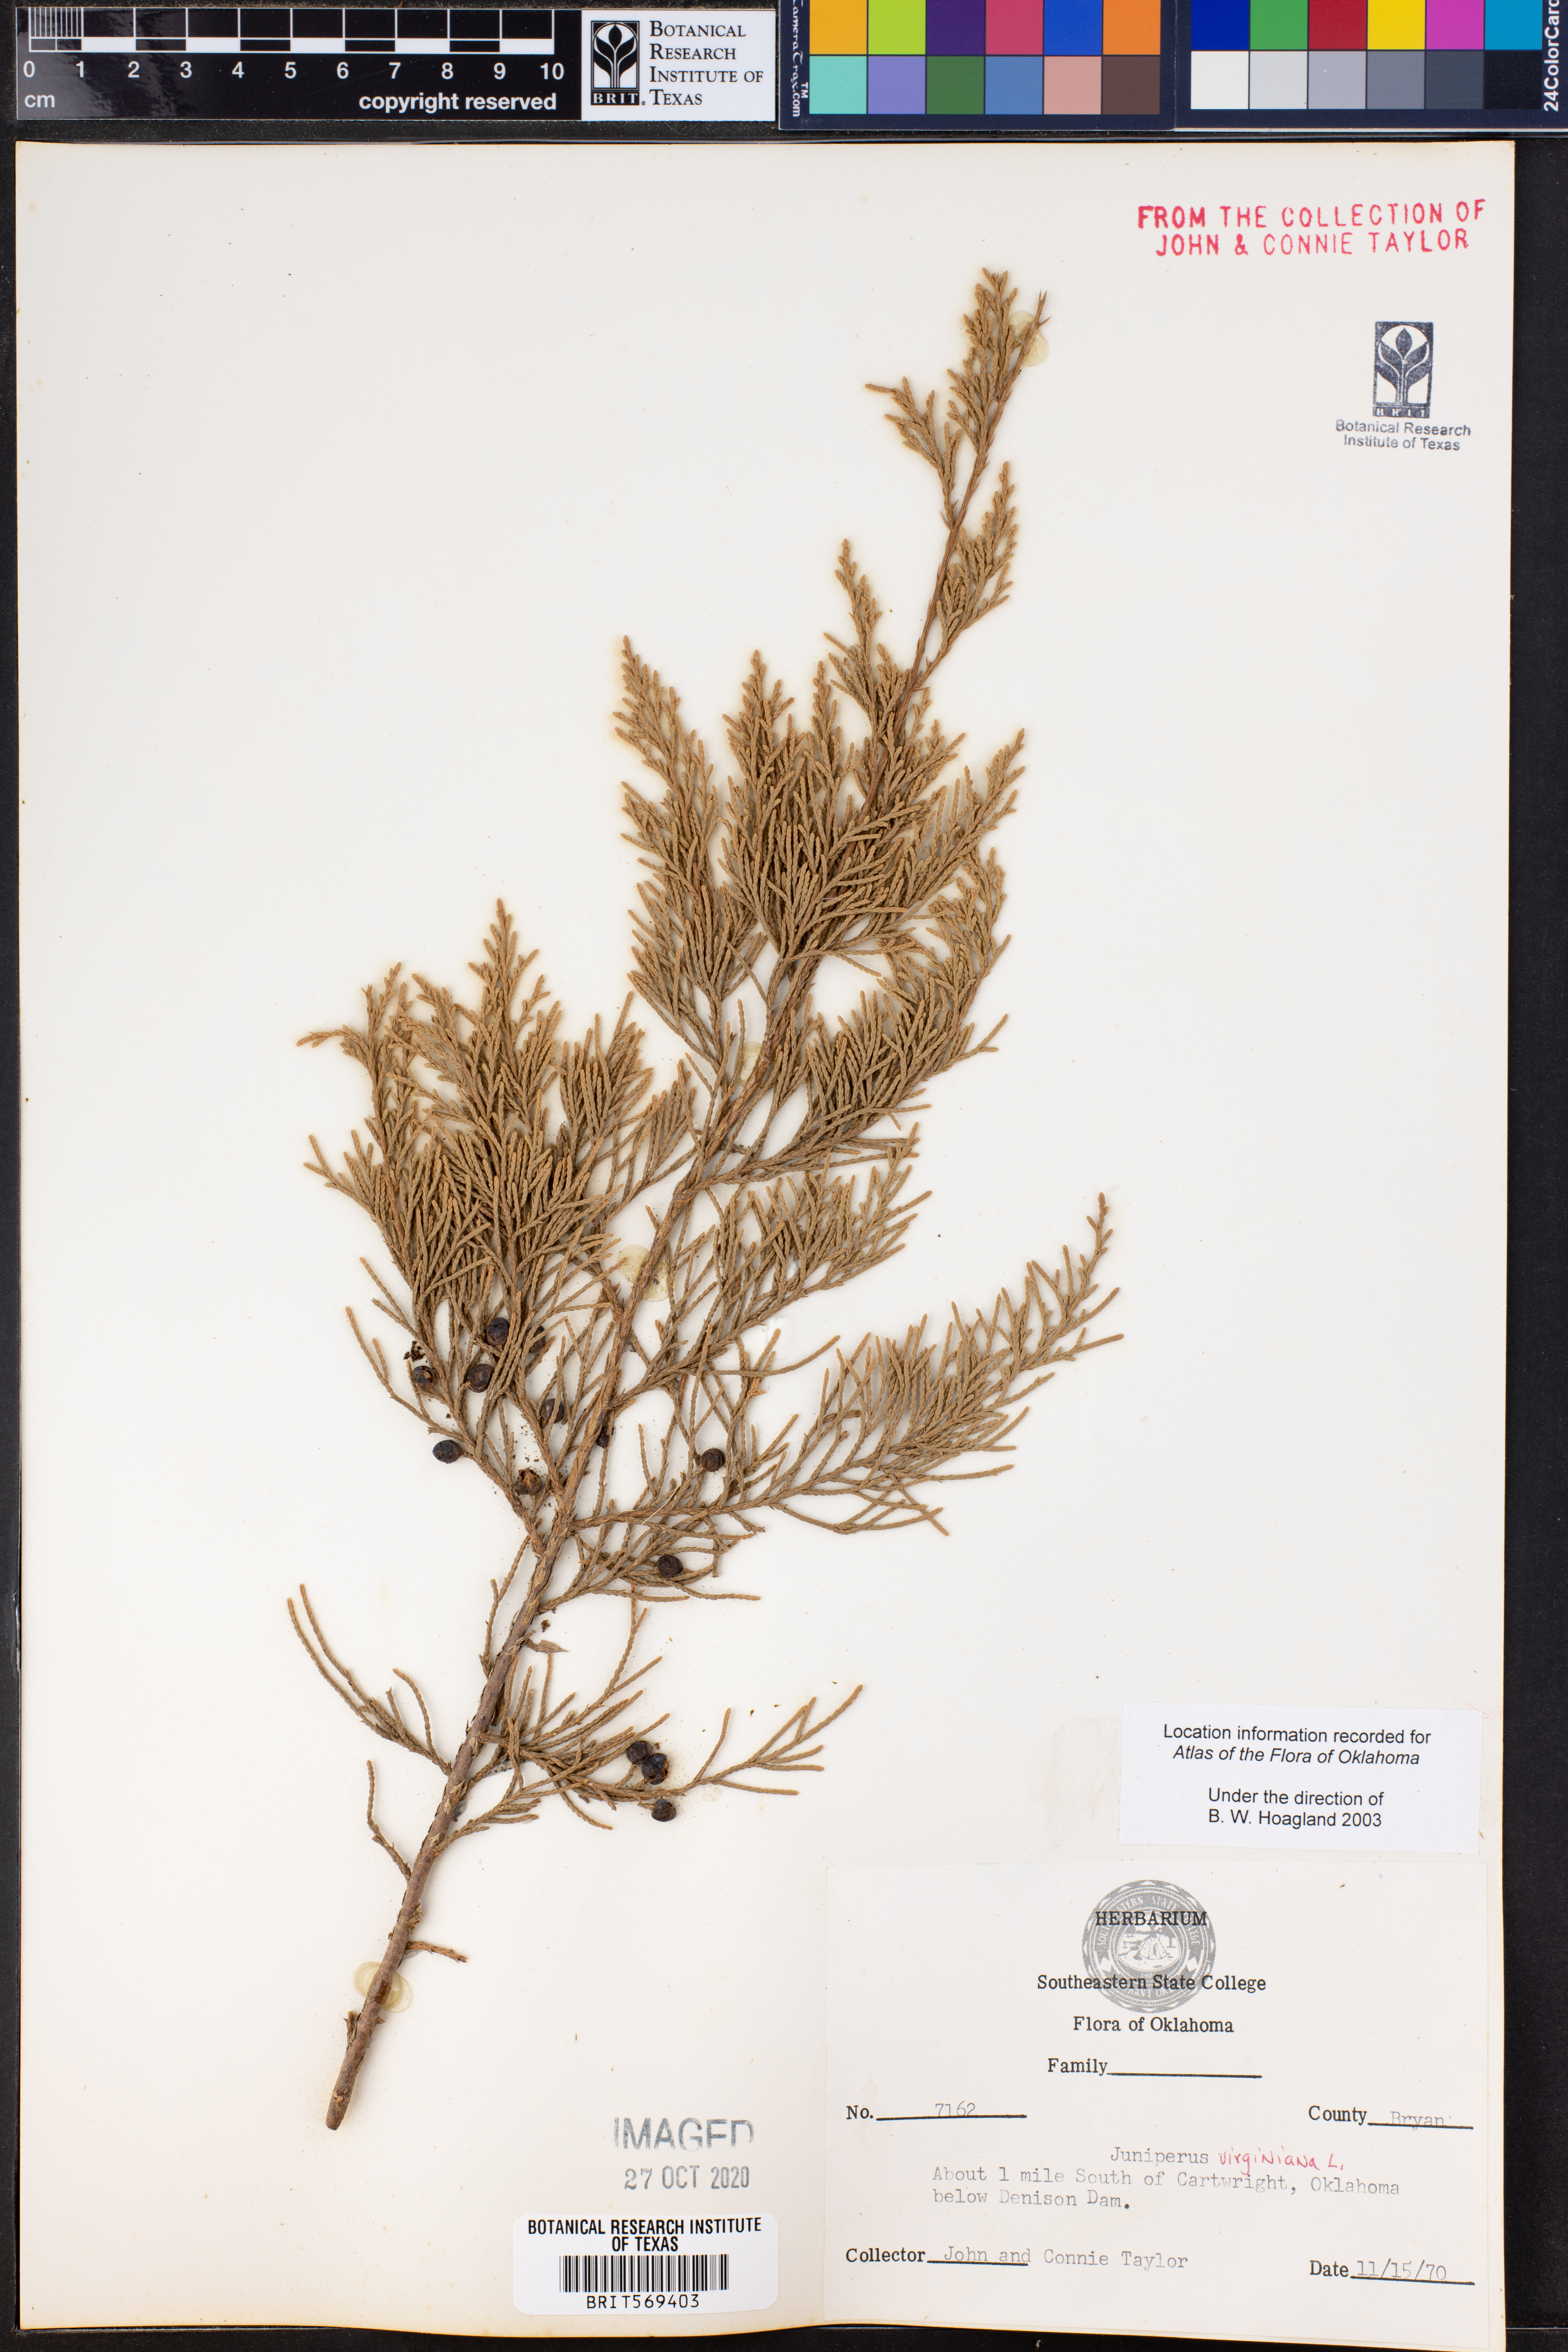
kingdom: Plantae
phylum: Tracheophyta
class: Pinopsida
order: Pinales
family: Cupressaceae
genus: Juniperus
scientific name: Juniperus virginiana
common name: Red juniper
